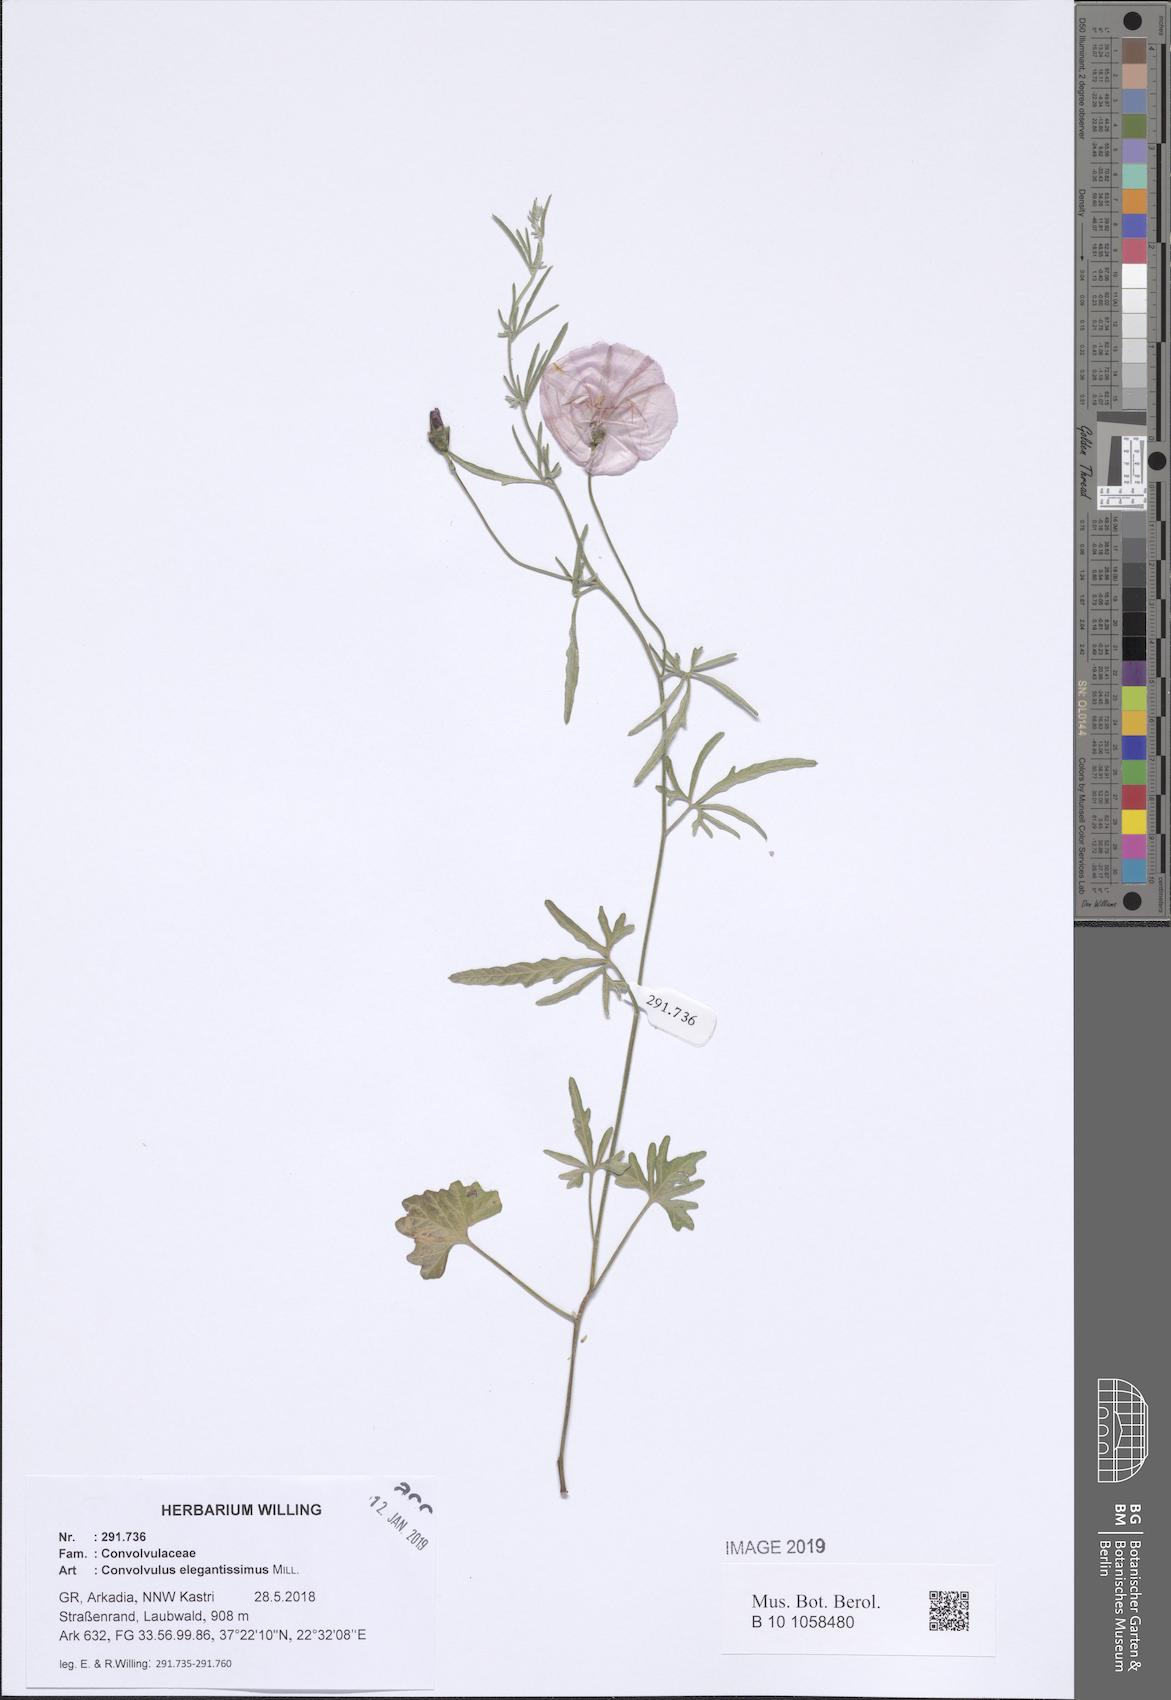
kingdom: Plantae
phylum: Tracheophyta
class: Magnoliopsida
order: Solanales
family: Convolvulaceae
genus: Convolvulus
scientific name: Convolvulus elegantissimus
